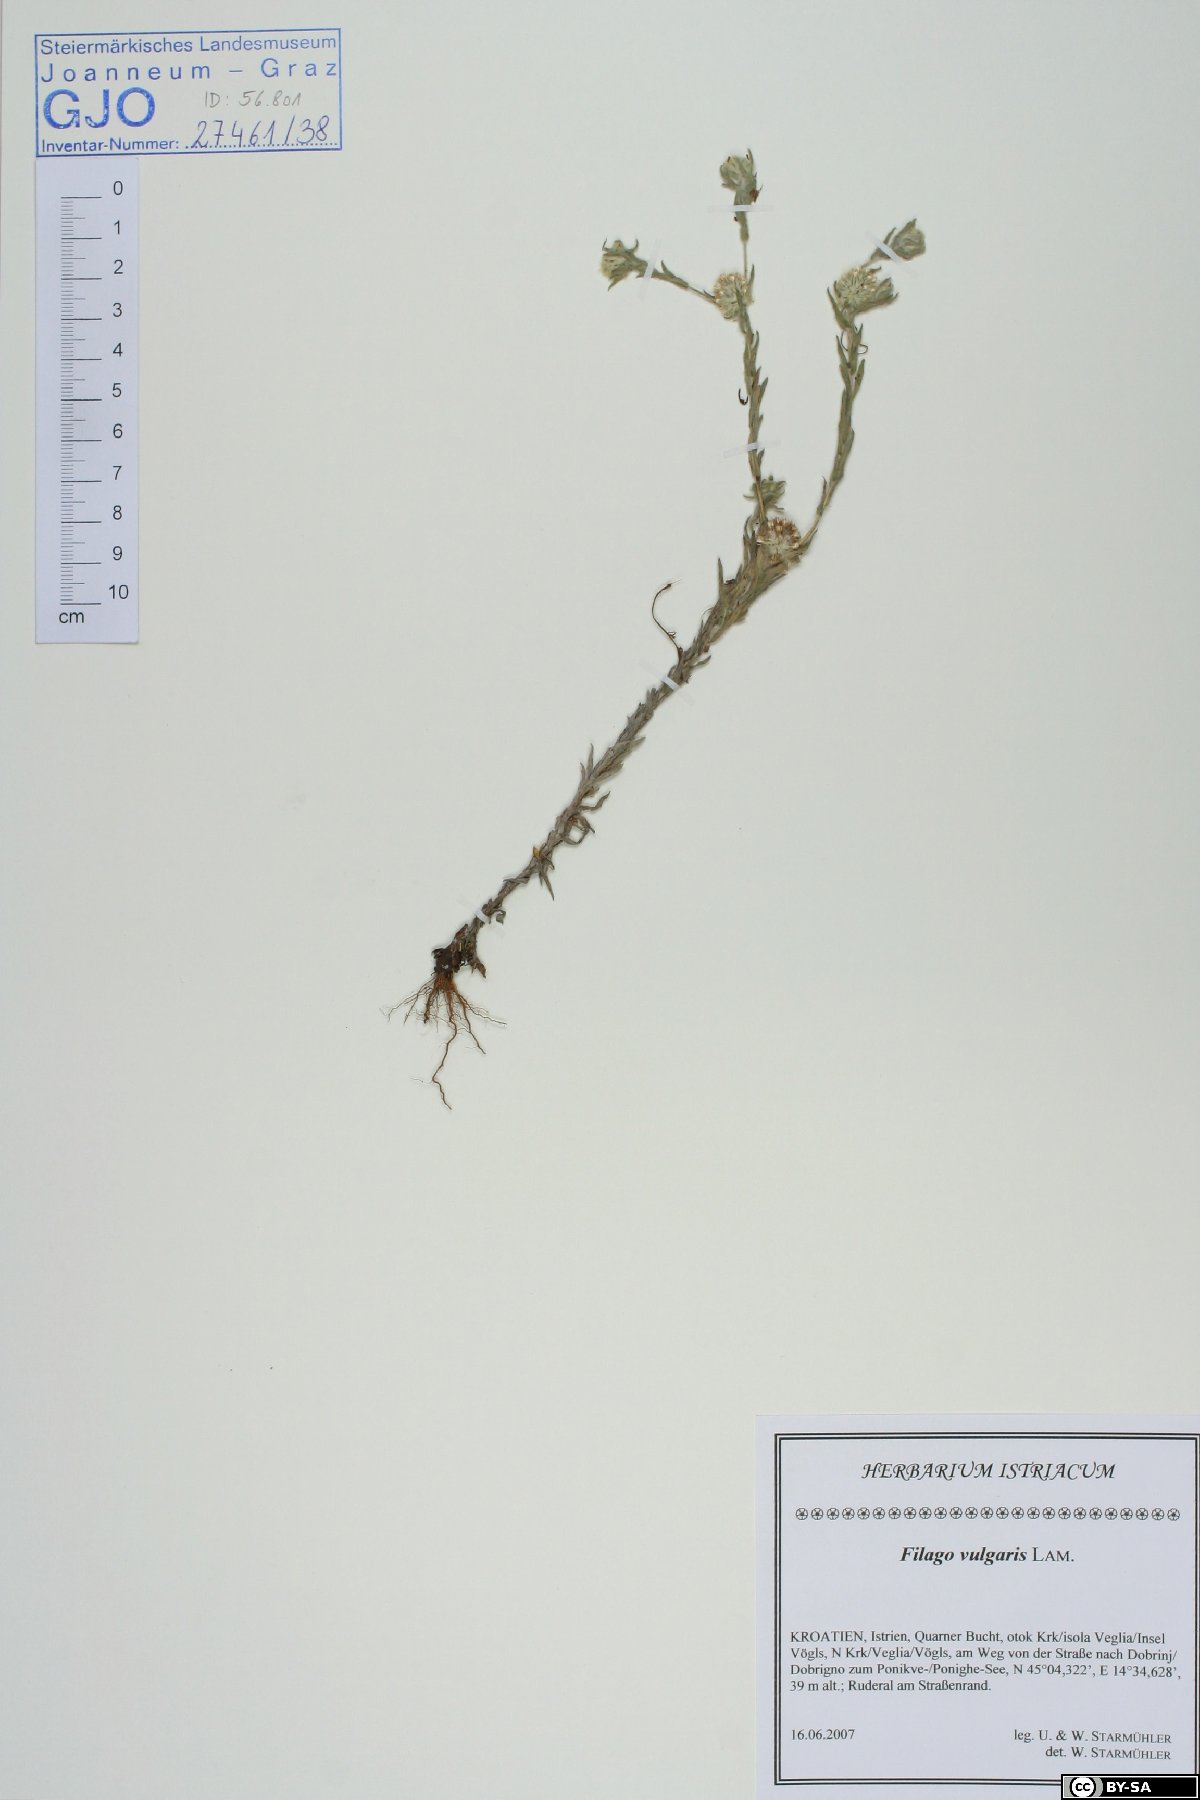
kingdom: Plantae
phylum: Tracheophyta
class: Magnoliopsida
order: Asterales
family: Asteraceae
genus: Filago
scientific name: Filago germanica
